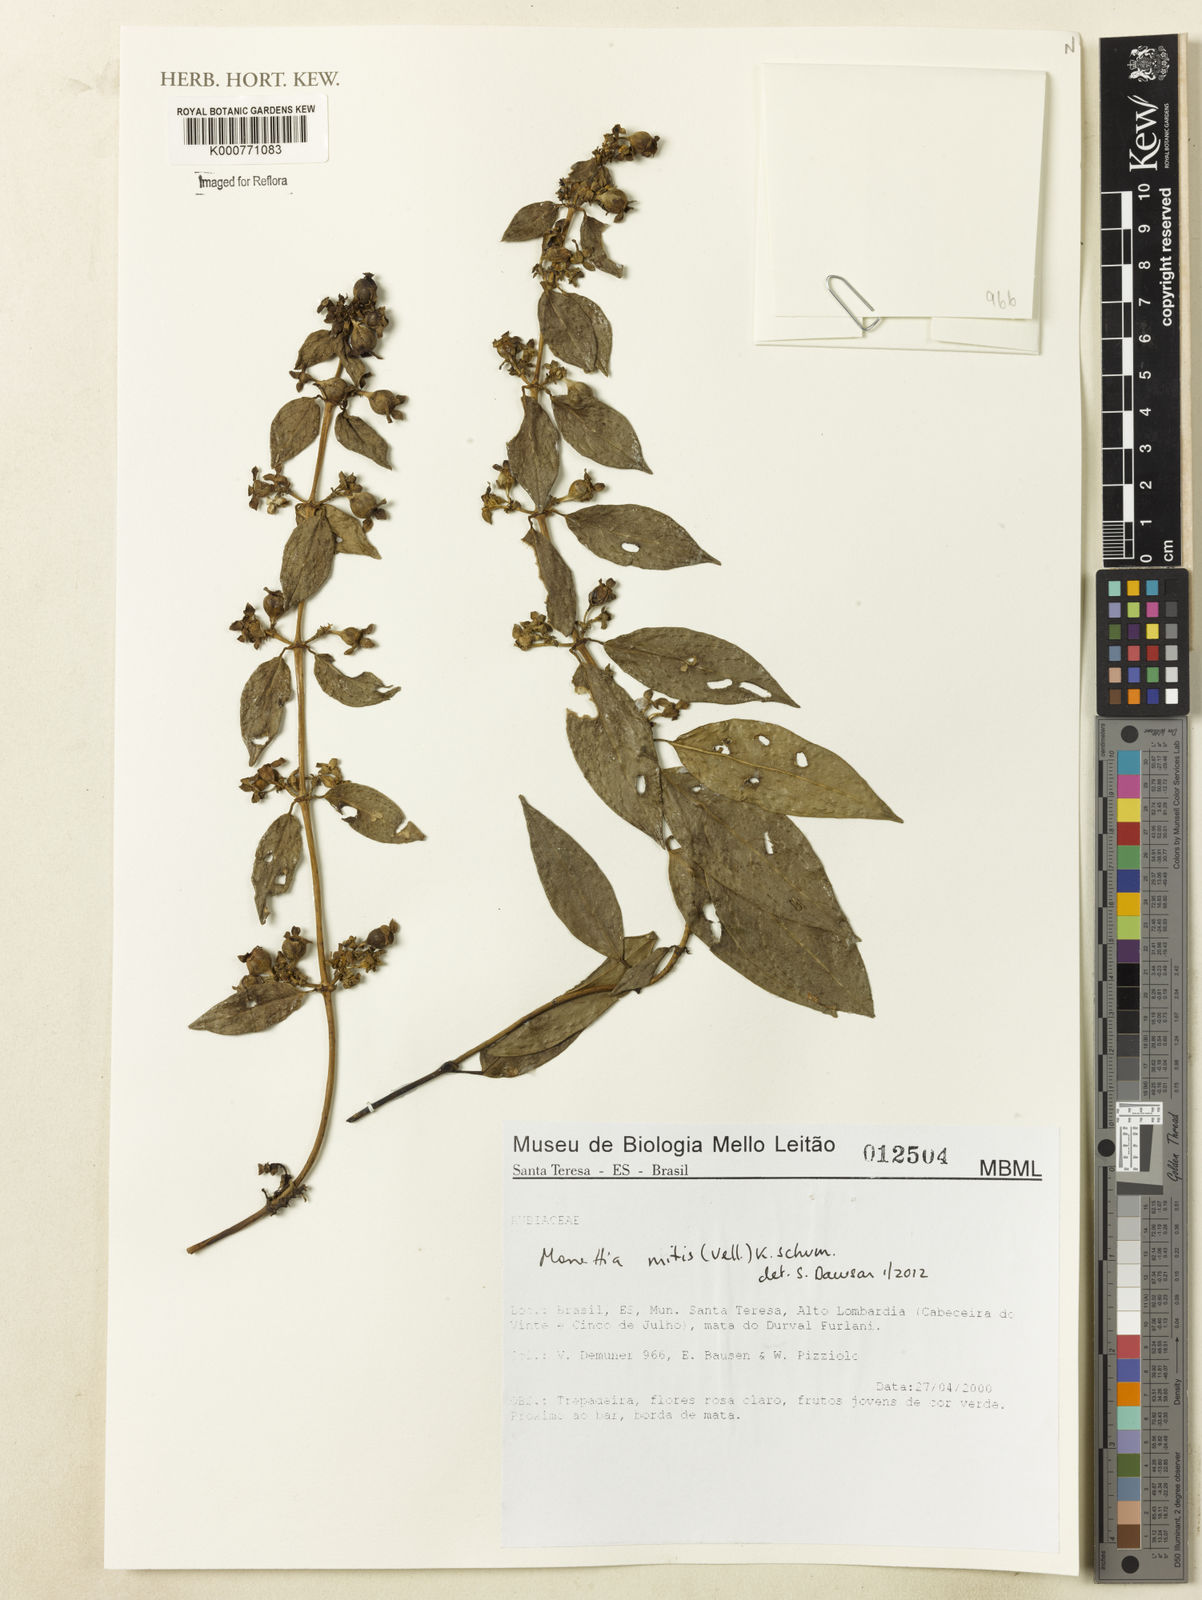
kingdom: Plantae
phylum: Tracheophyta
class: Magnoliopsida
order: Gentianales
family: Rubiaceae
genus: Manettia
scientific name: Manettia
